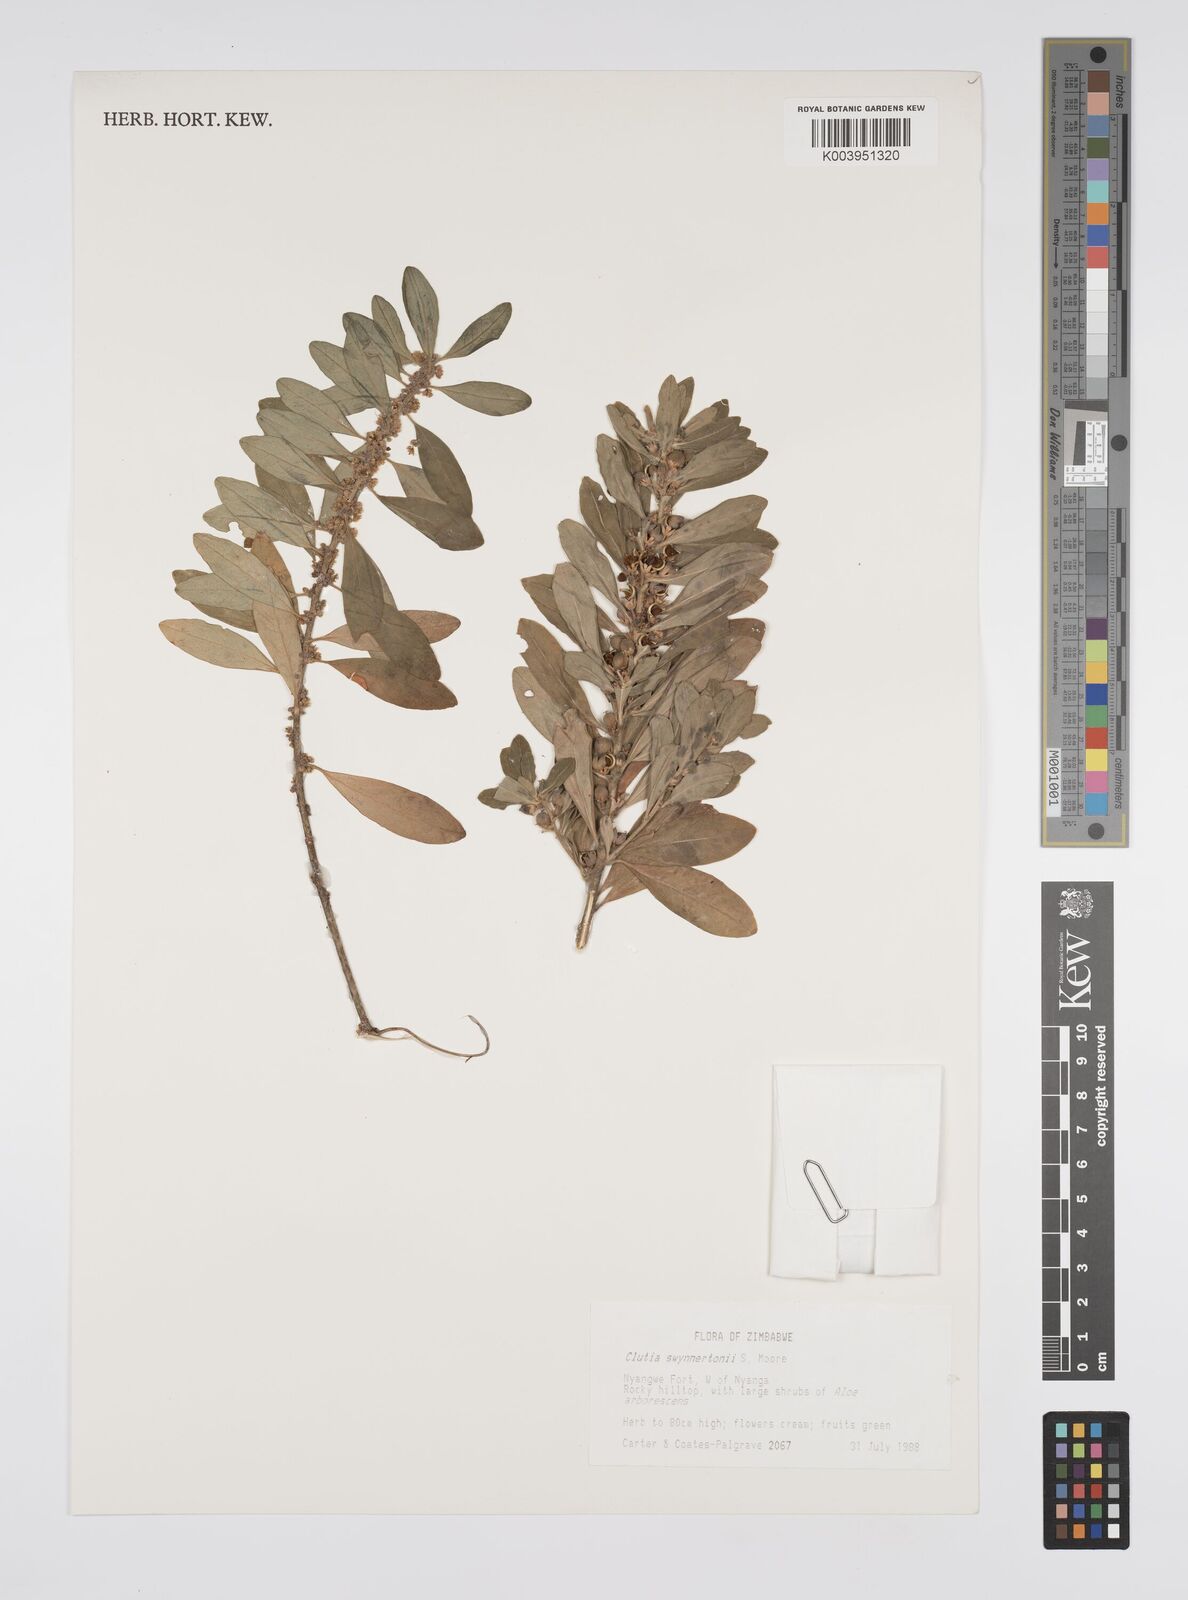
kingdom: Plantae
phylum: Tracheophyta
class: Magnoliopsida
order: Malpighiales
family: Peraceae
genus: Clutia
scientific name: Clutia swynnertonii
